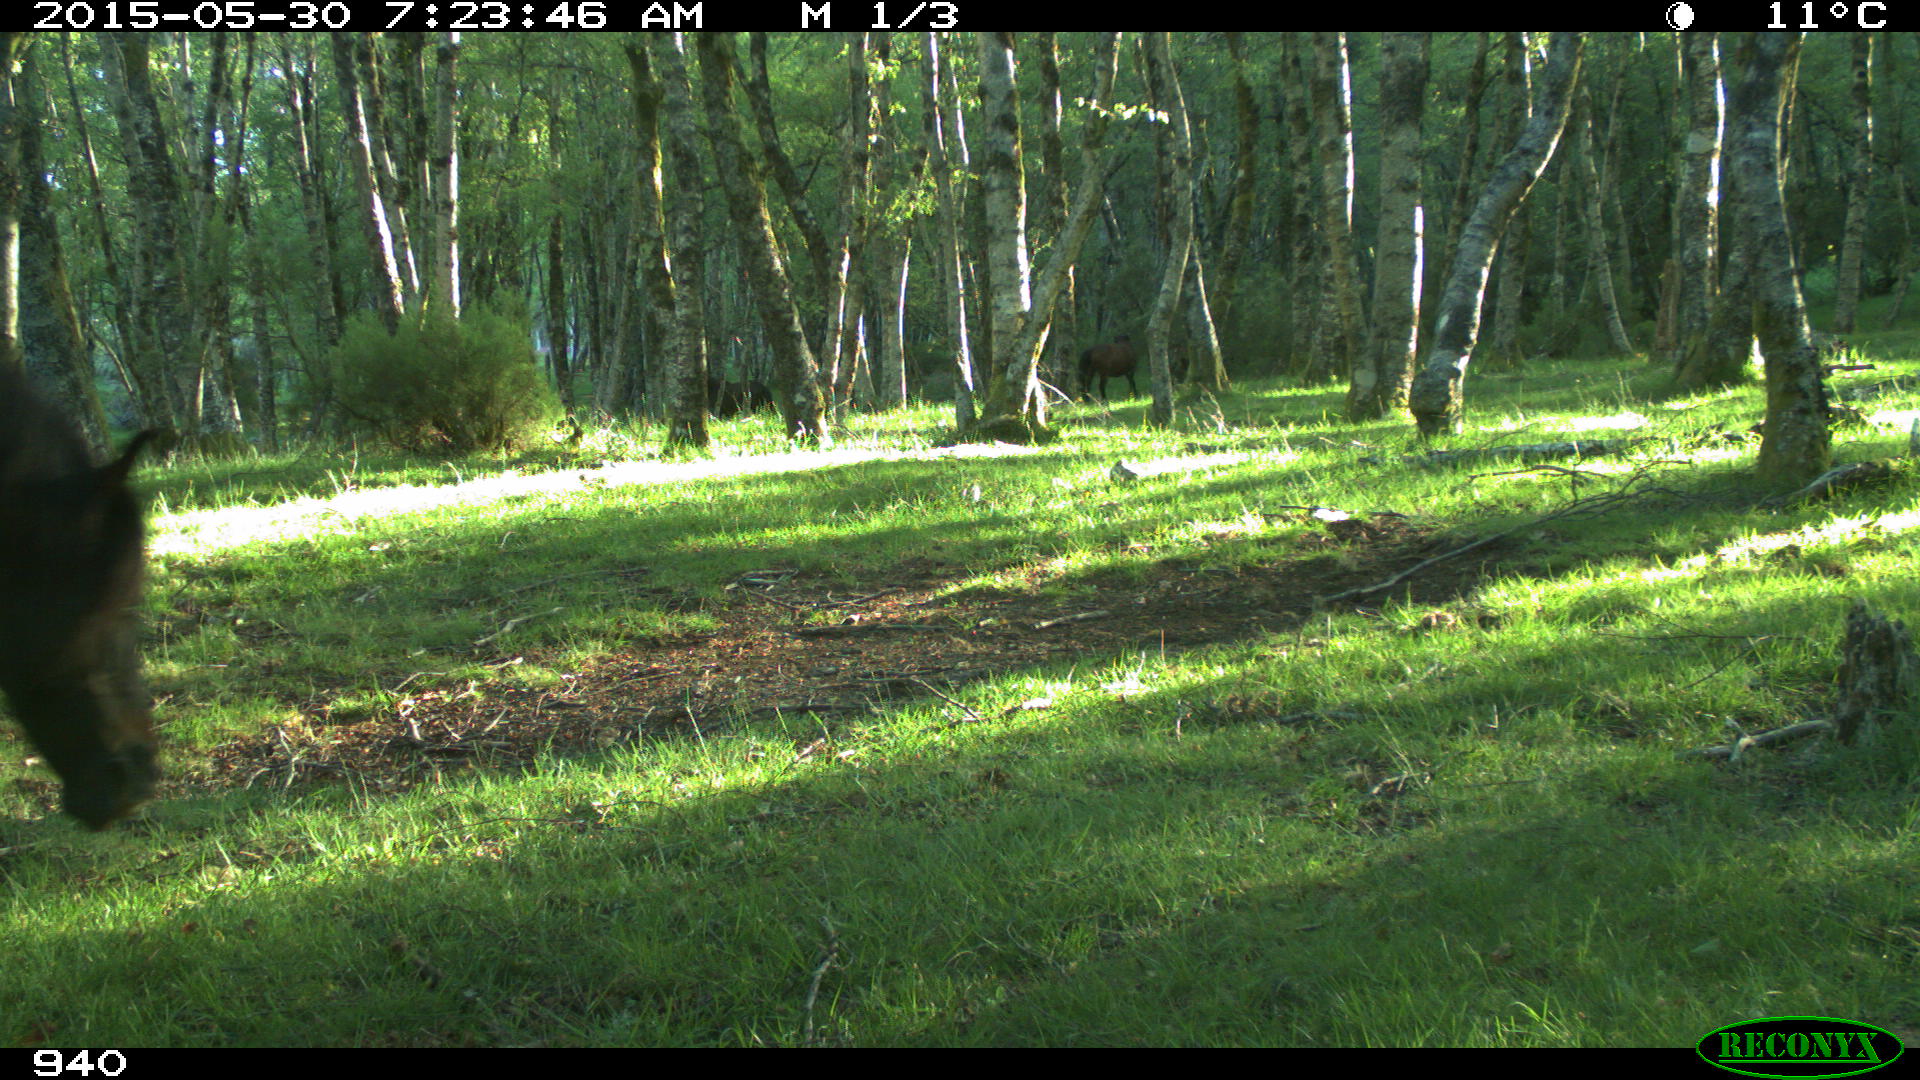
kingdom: Animalia
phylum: Chordata
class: Mammalia
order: Perissodactyla
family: Equidae
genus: Equus
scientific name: Equus caballus
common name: Horse
